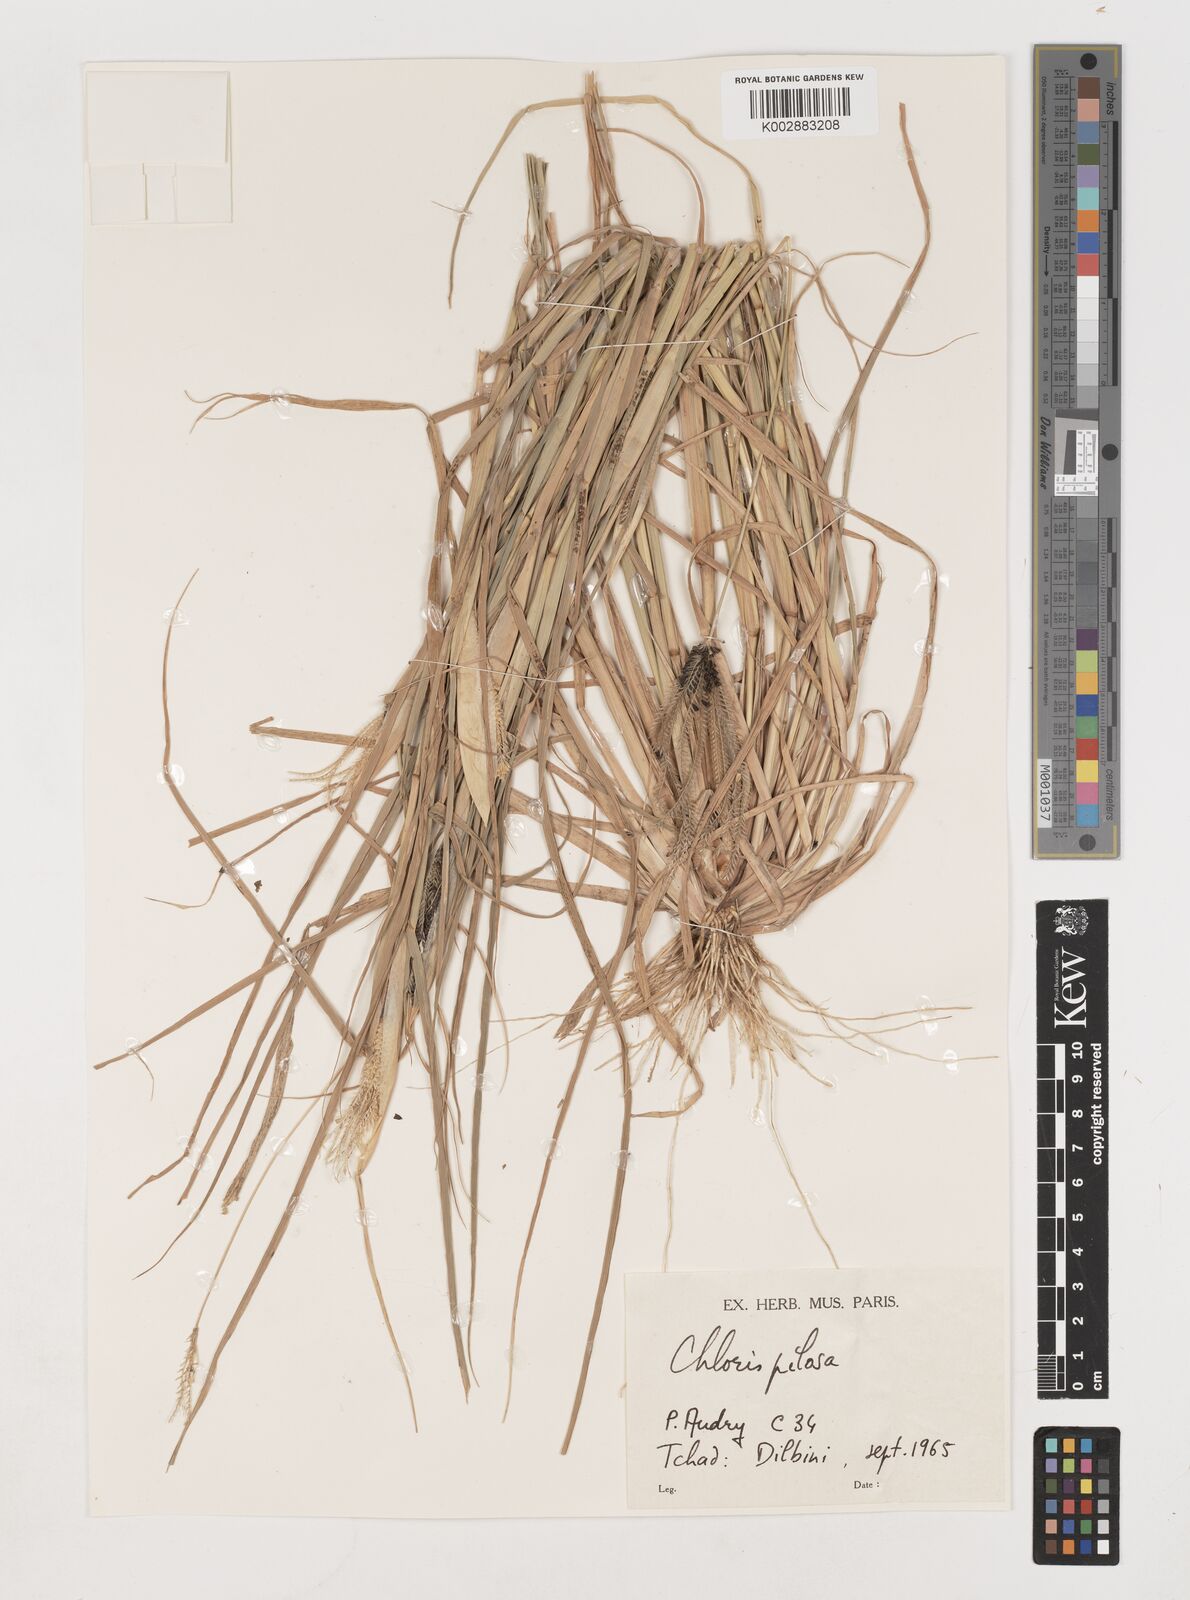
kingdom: Plantae
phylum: Tracheophyta
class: Liliopsida
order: Poales
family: Poaceae
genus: Chloris
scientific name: Chloris pilosa
